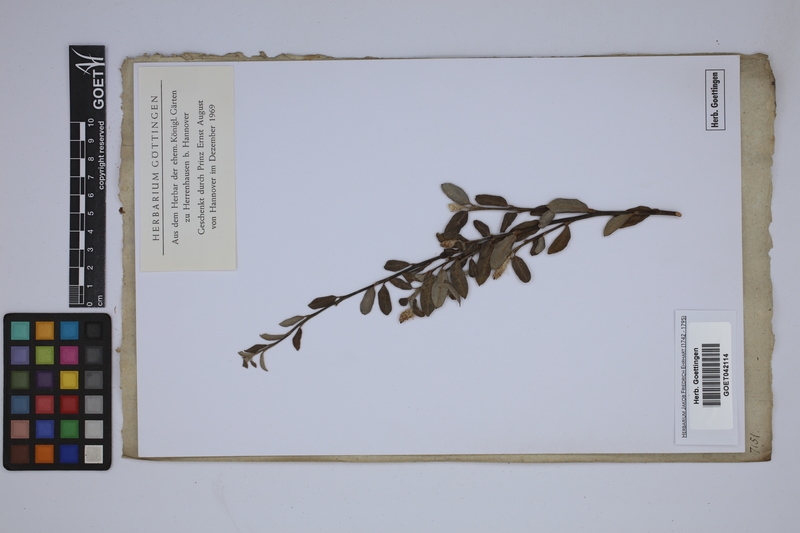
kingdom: Plantae
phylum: Tracheophyta
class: Magnoliopsida
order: Malpighiales
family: Salicaceae
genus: Salix
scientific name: Salix
